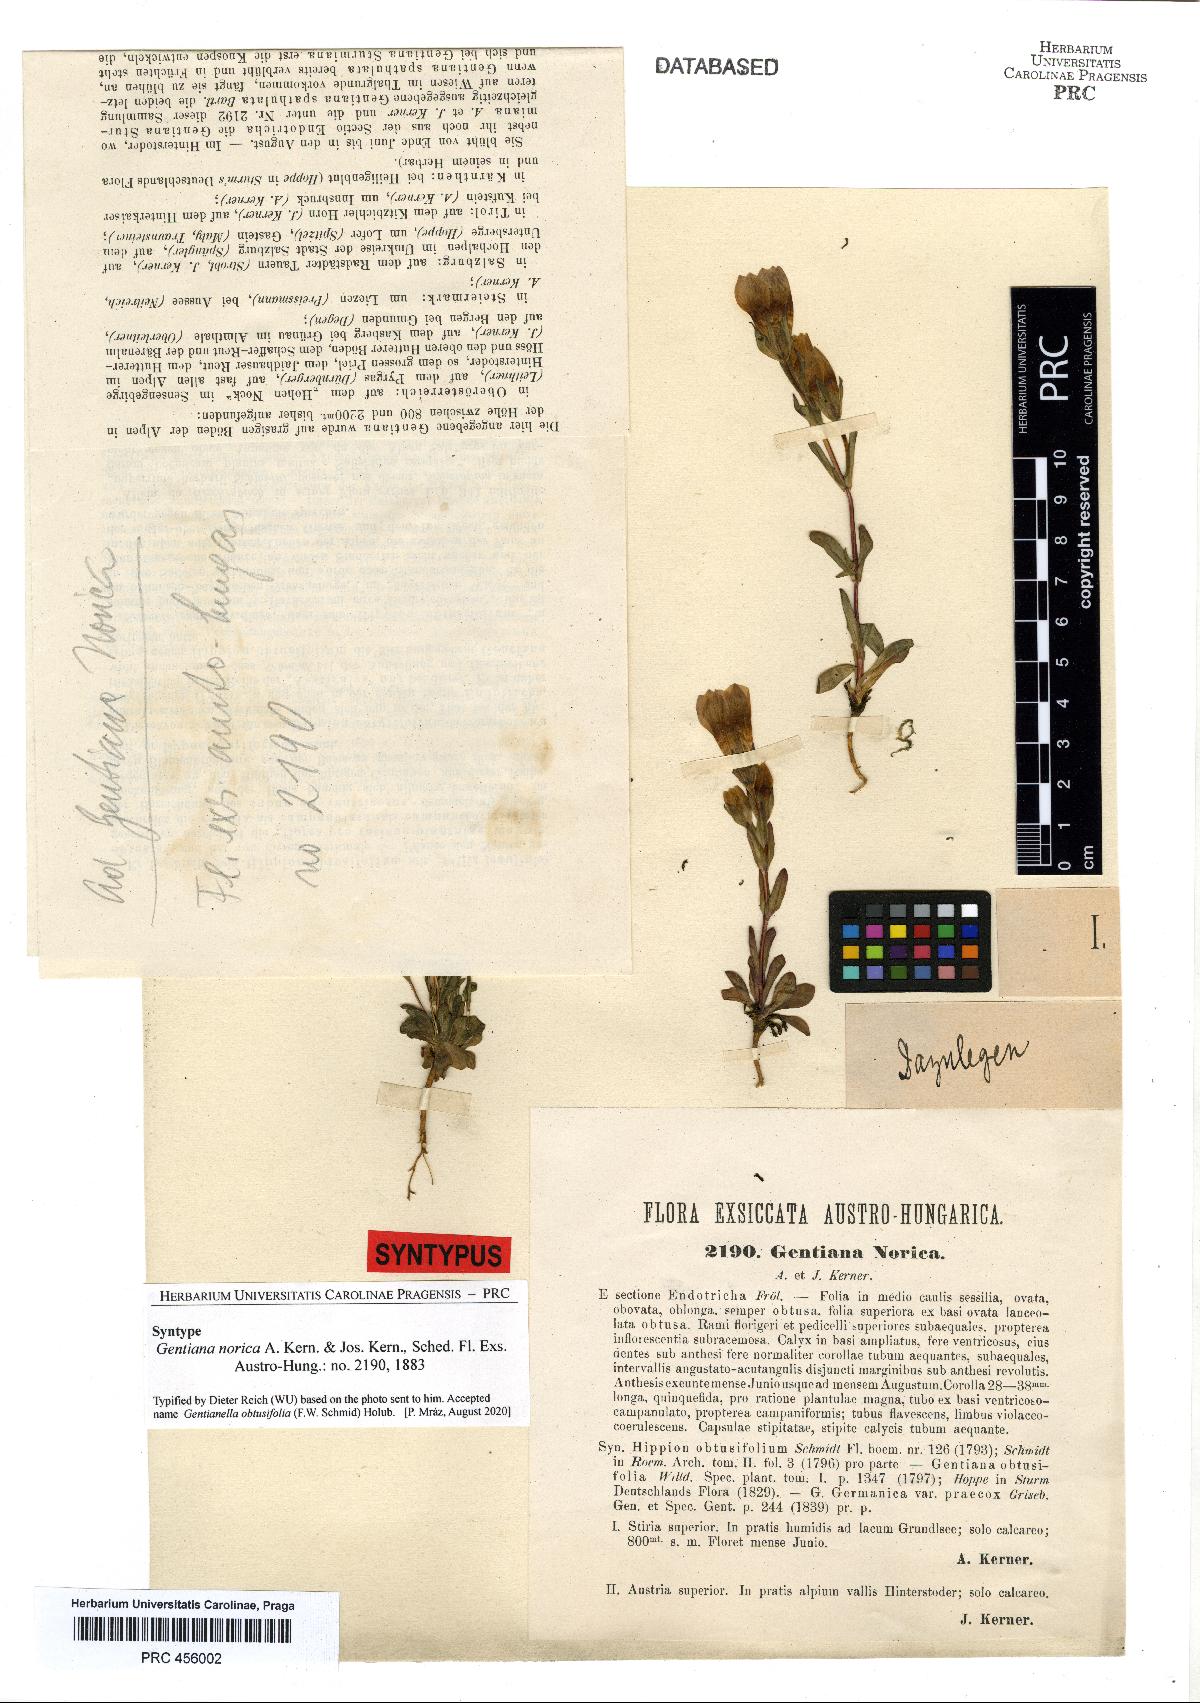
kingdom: Plantae
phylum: Tracheophyta
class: Magnoliopsida
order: Gentianales
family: Gentianaceae
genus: Gentianella
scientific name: Gentianella obtusifolia
